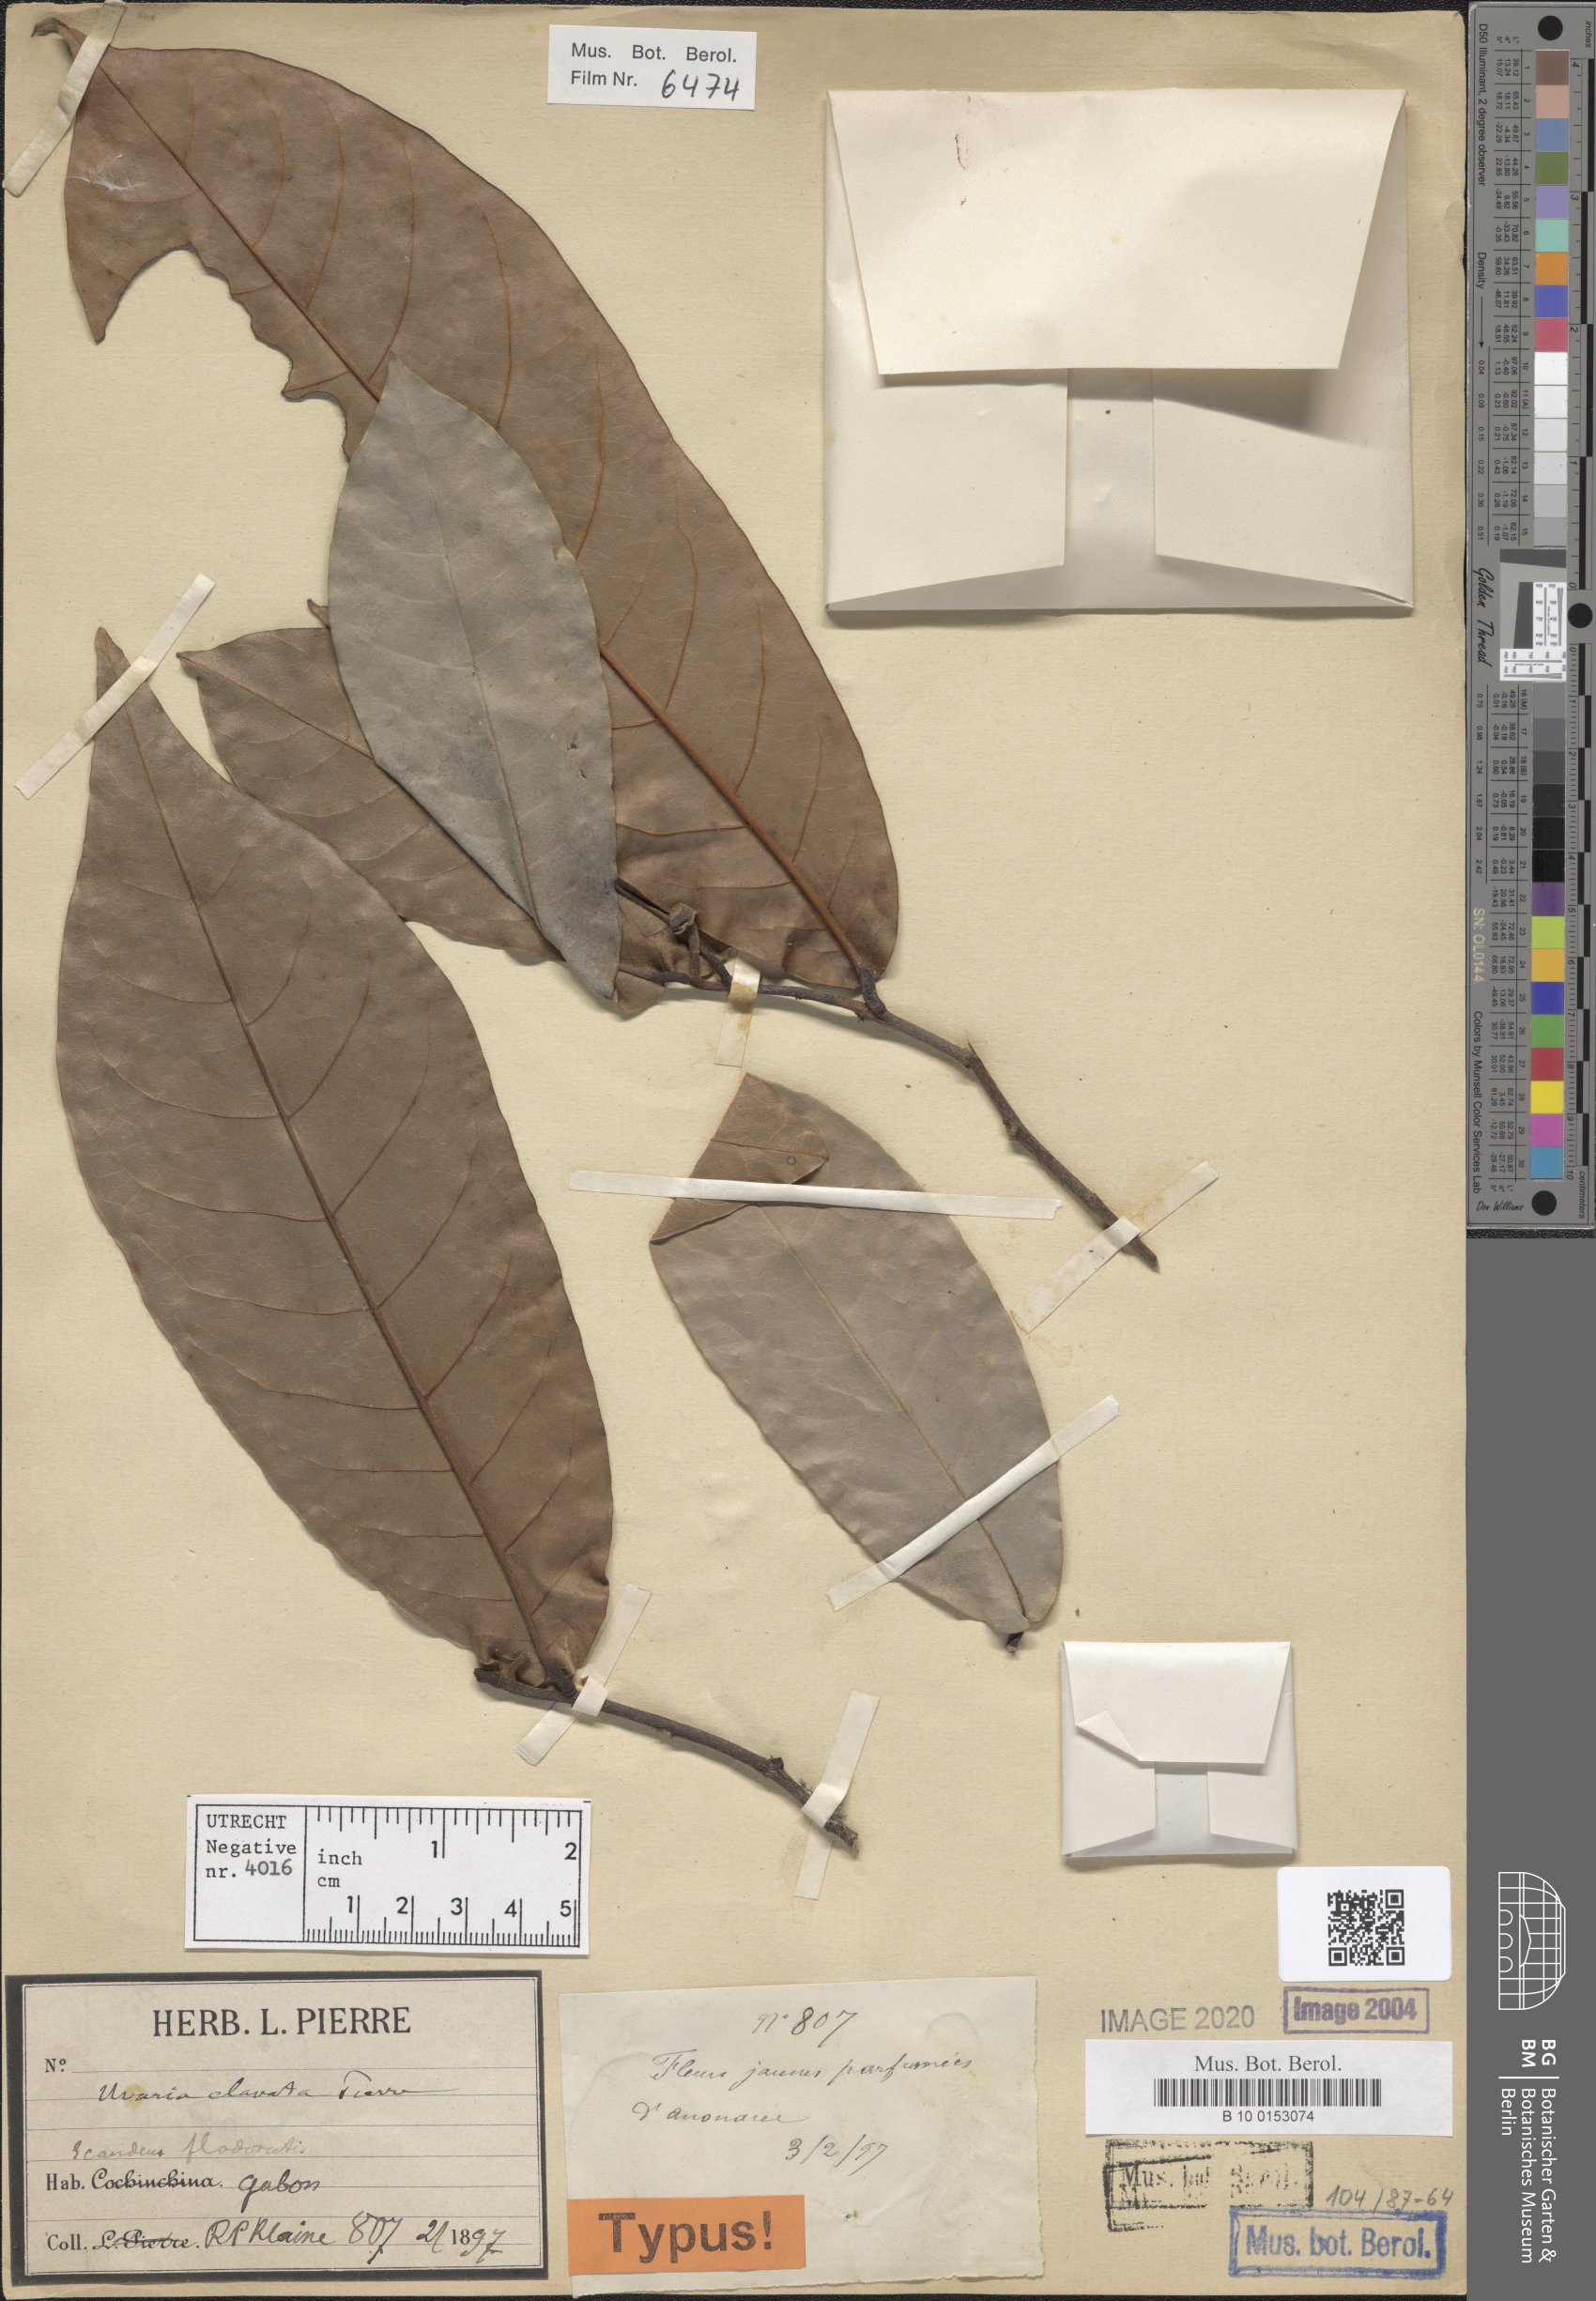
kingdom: Plantae
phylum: Tracheophyta
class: Magnoliopsida
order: Magnoliales
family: Annonaceae
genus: Uvaria
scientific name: Uvaria clavata
